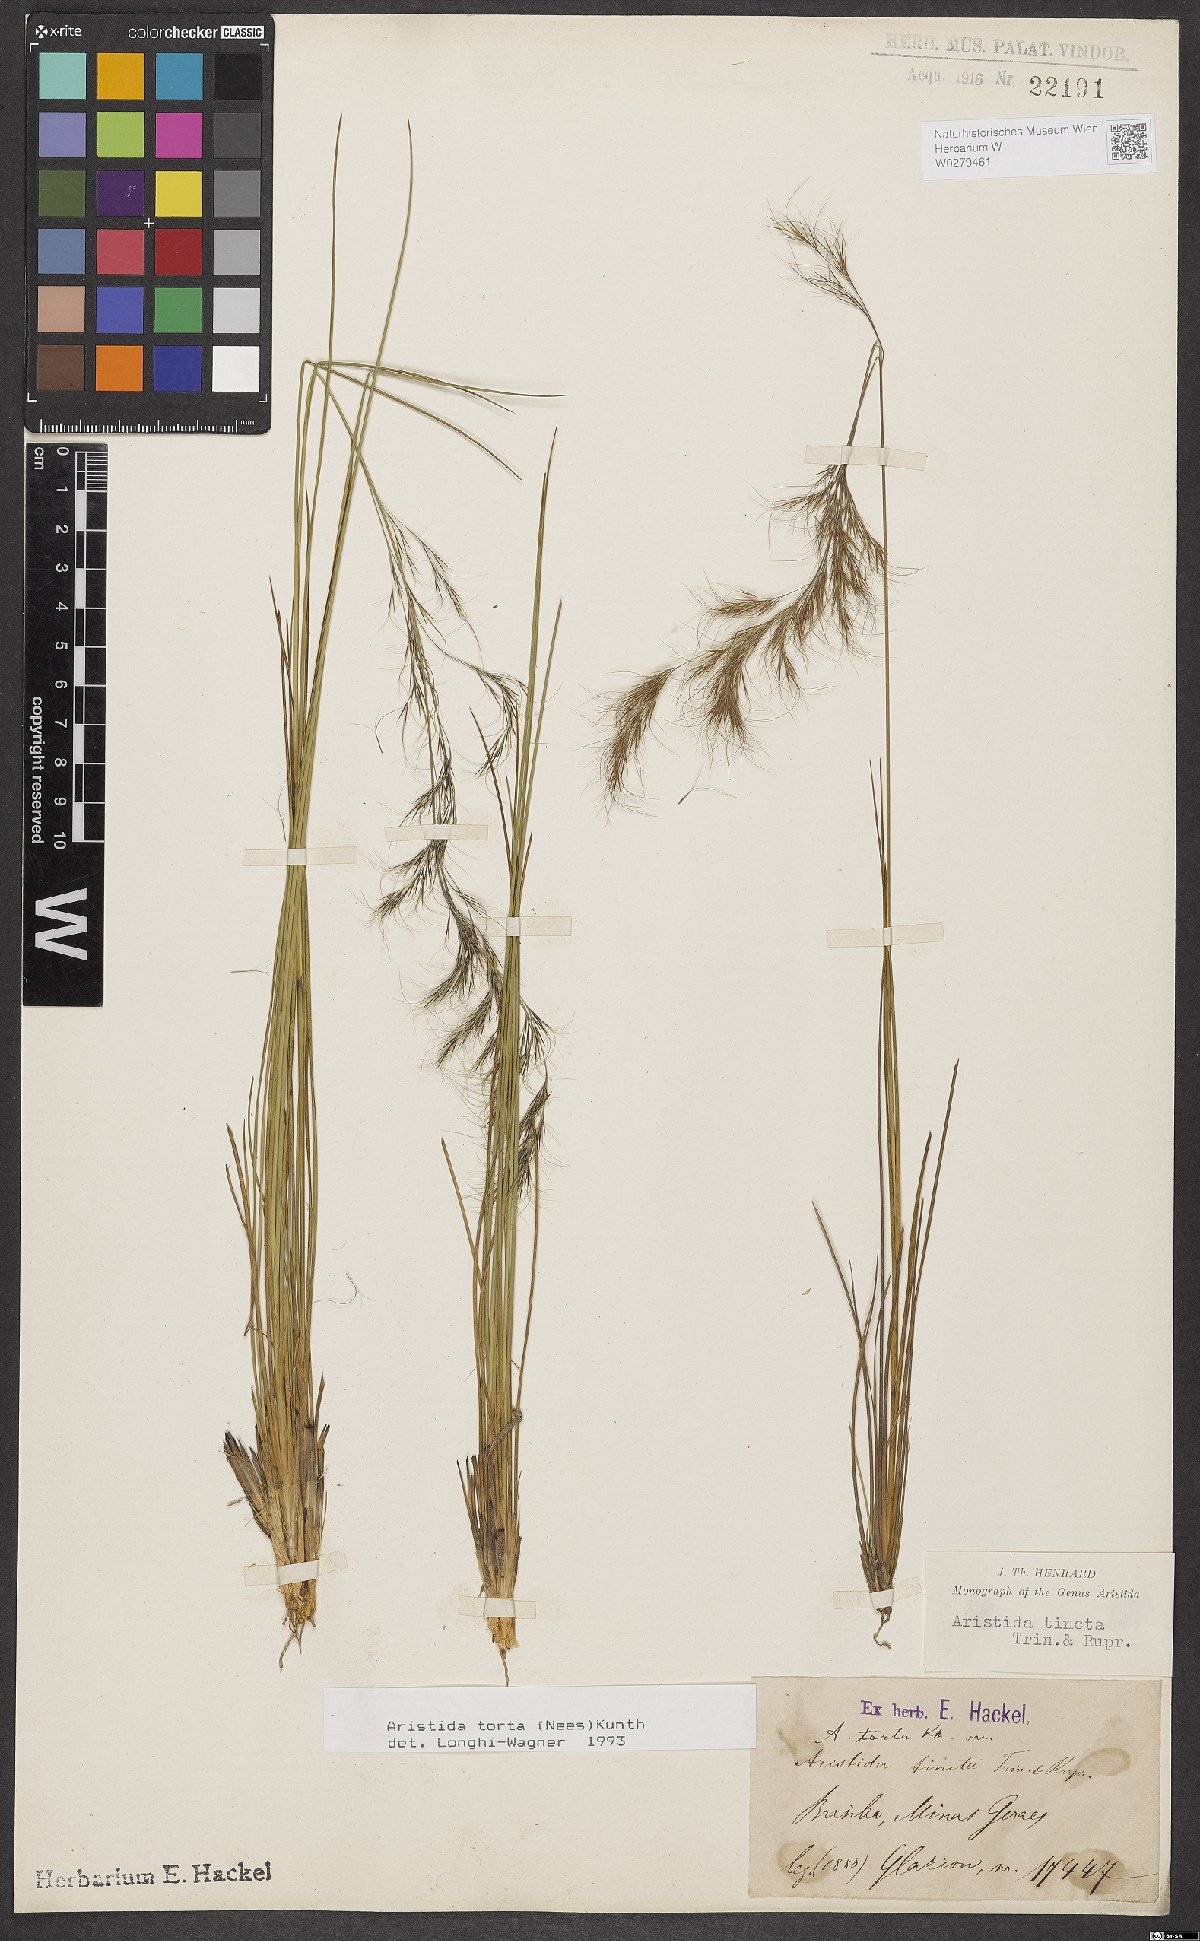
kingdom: Plantae
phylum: Tracheophyta
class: Liliopsida
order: Poales
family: Poaceae
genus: Aristida
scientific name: Aristida torta
